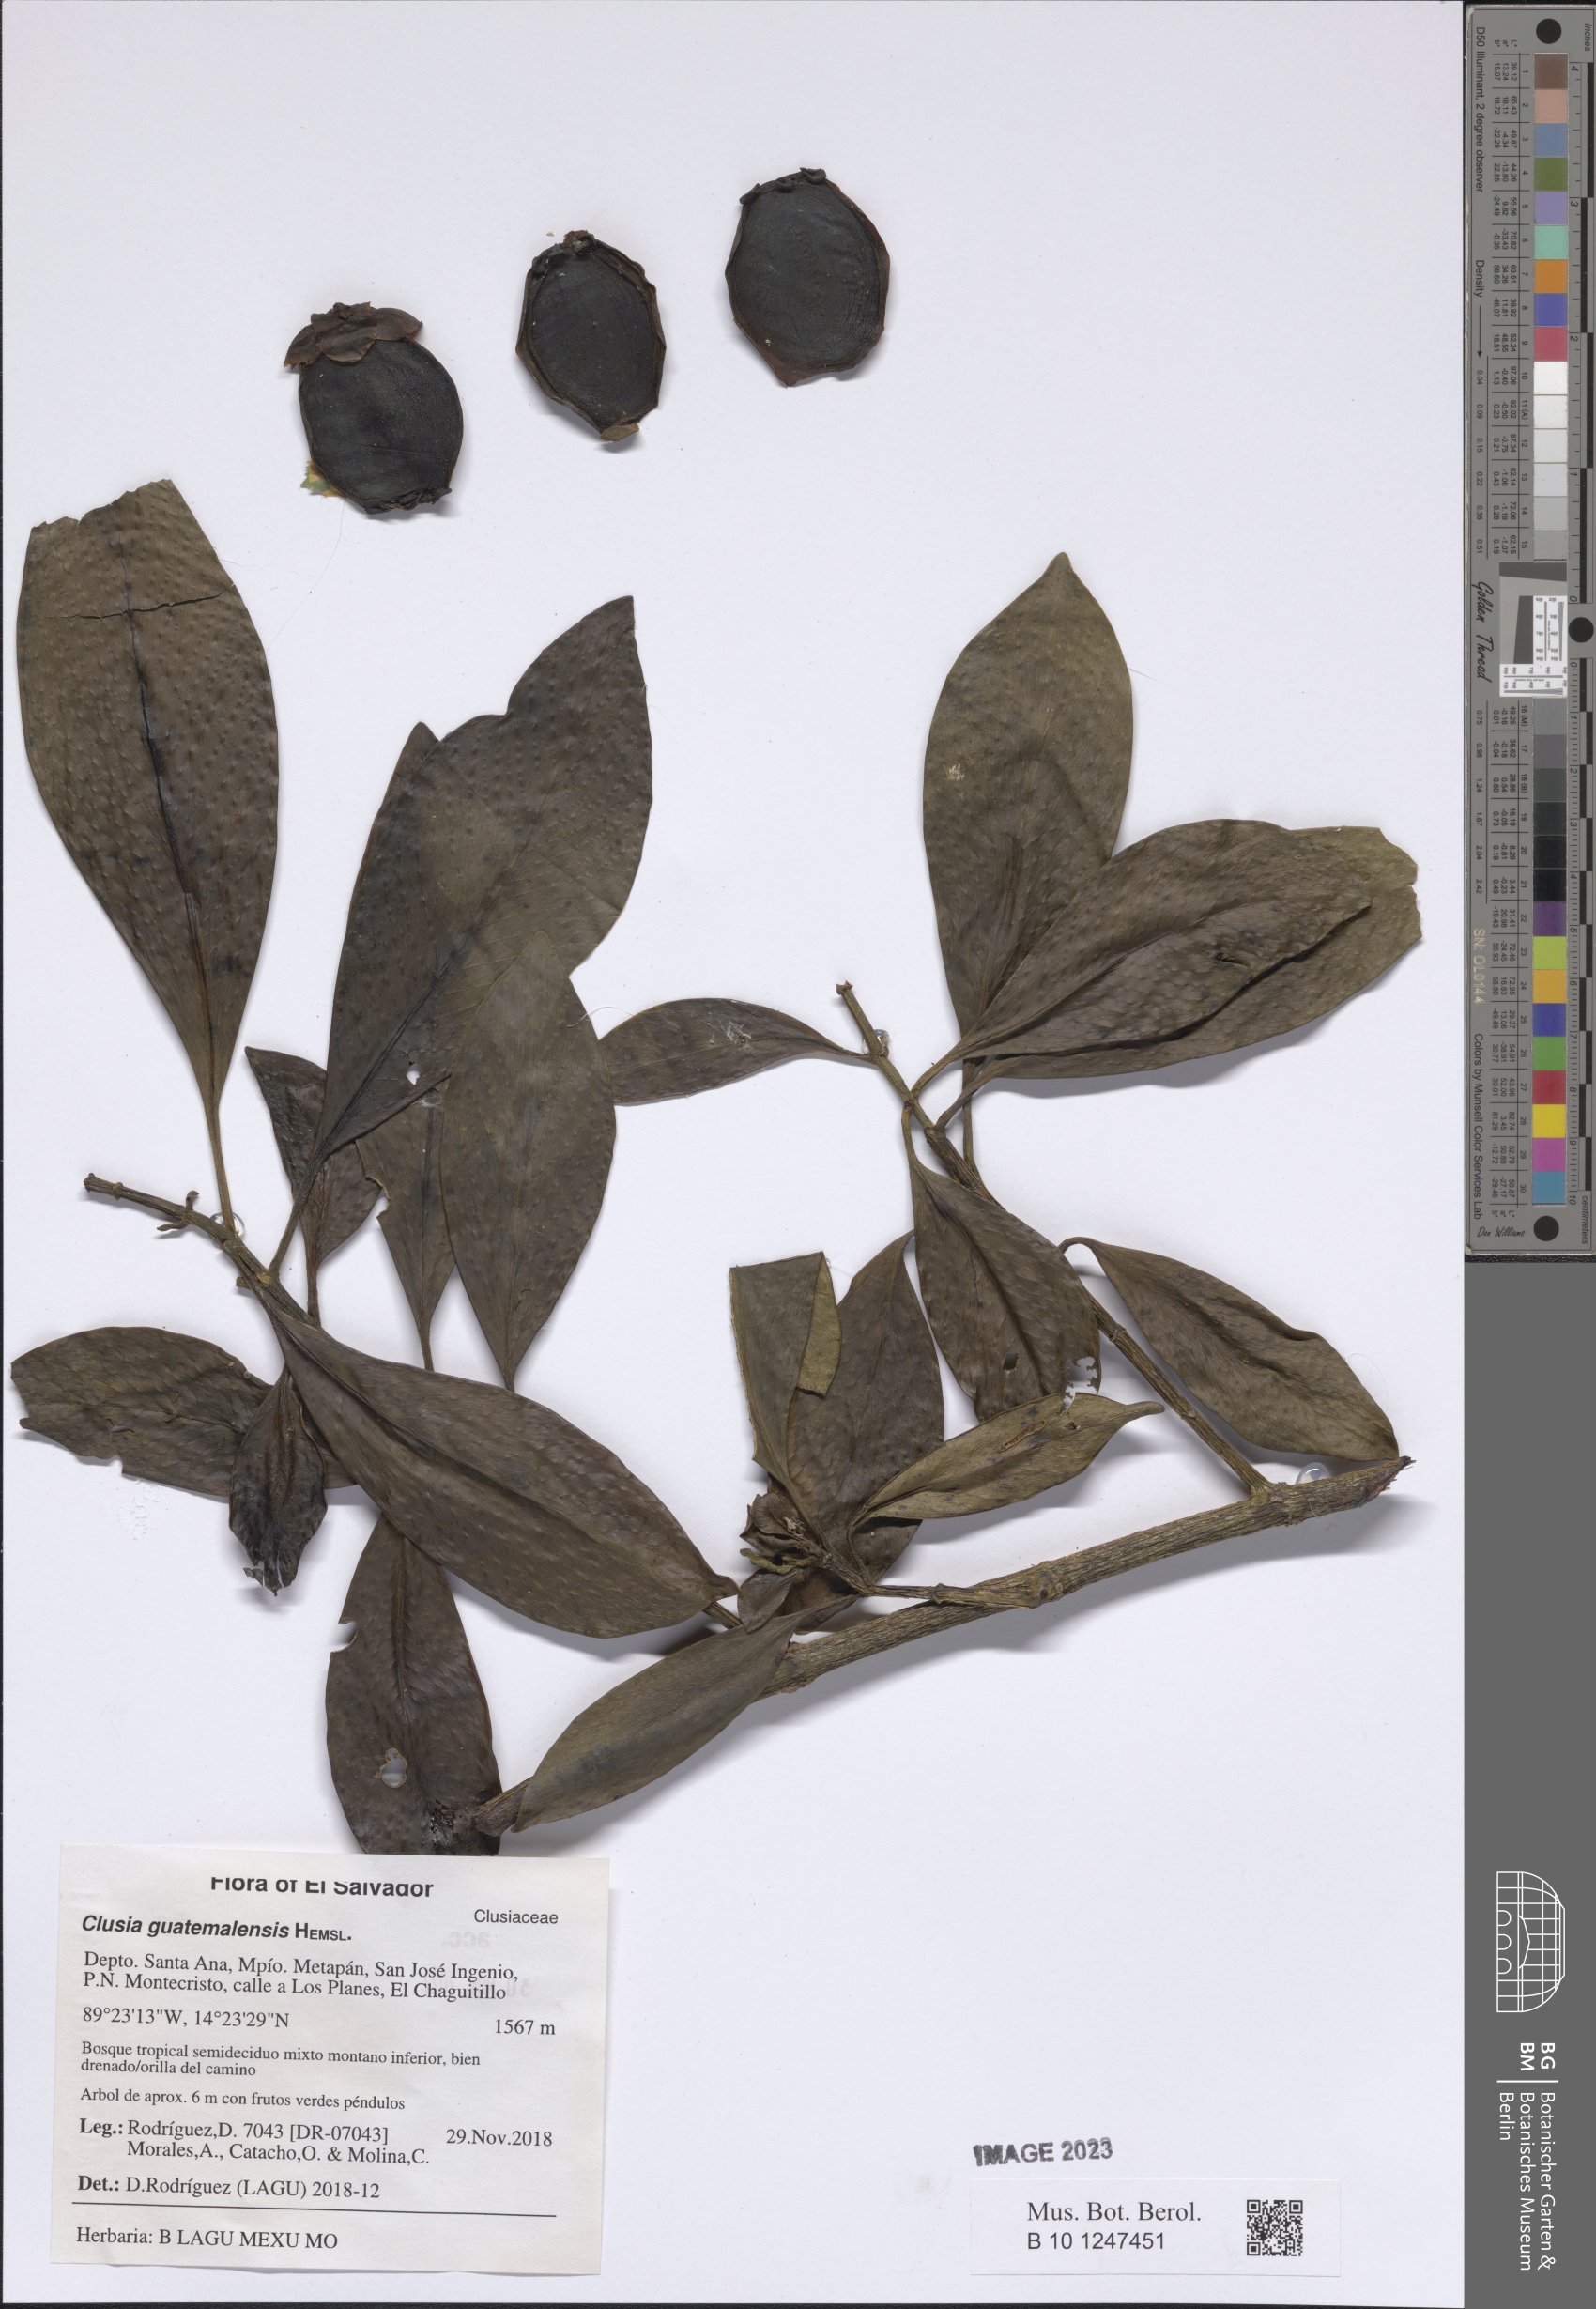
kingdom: Plantae
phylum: Tracheophyta
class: Magnoliopsida
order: Malpighiales
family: Clusiaceae
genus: Clusia
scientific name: Clusia guatemalensis
